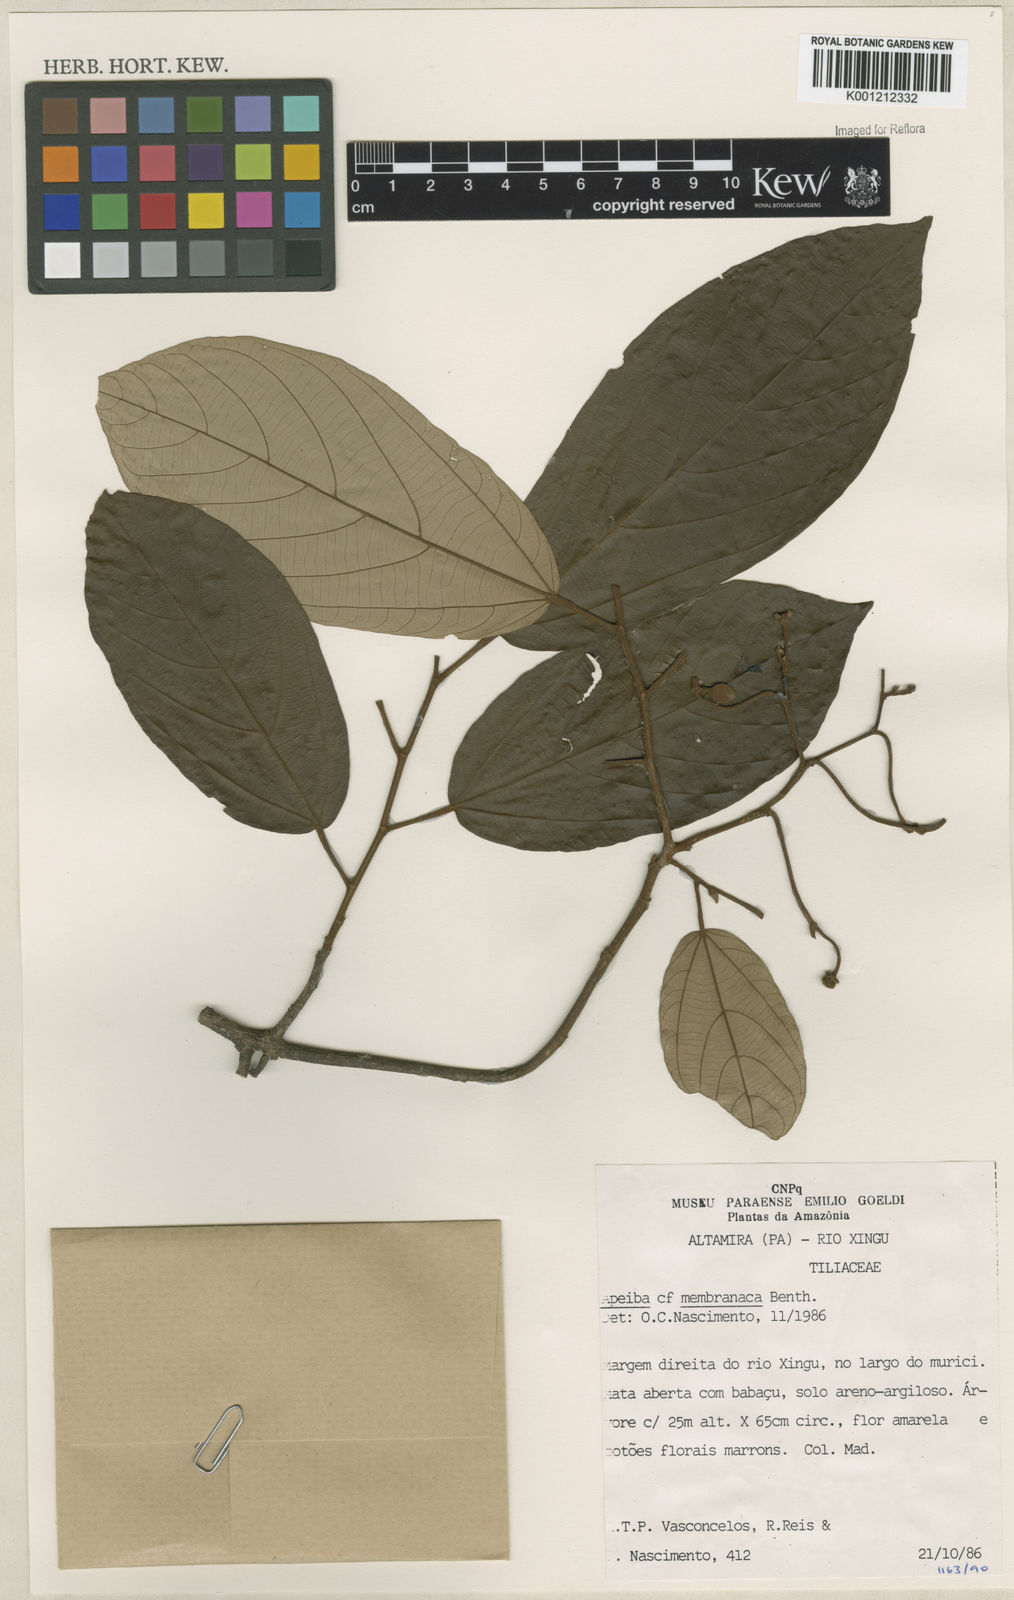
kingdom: Plantae
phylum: Tracheophyta
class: Magnoliopsida
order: Malvales
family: Malvaceae
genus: Apeiba
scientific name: Apeiba membranacea
